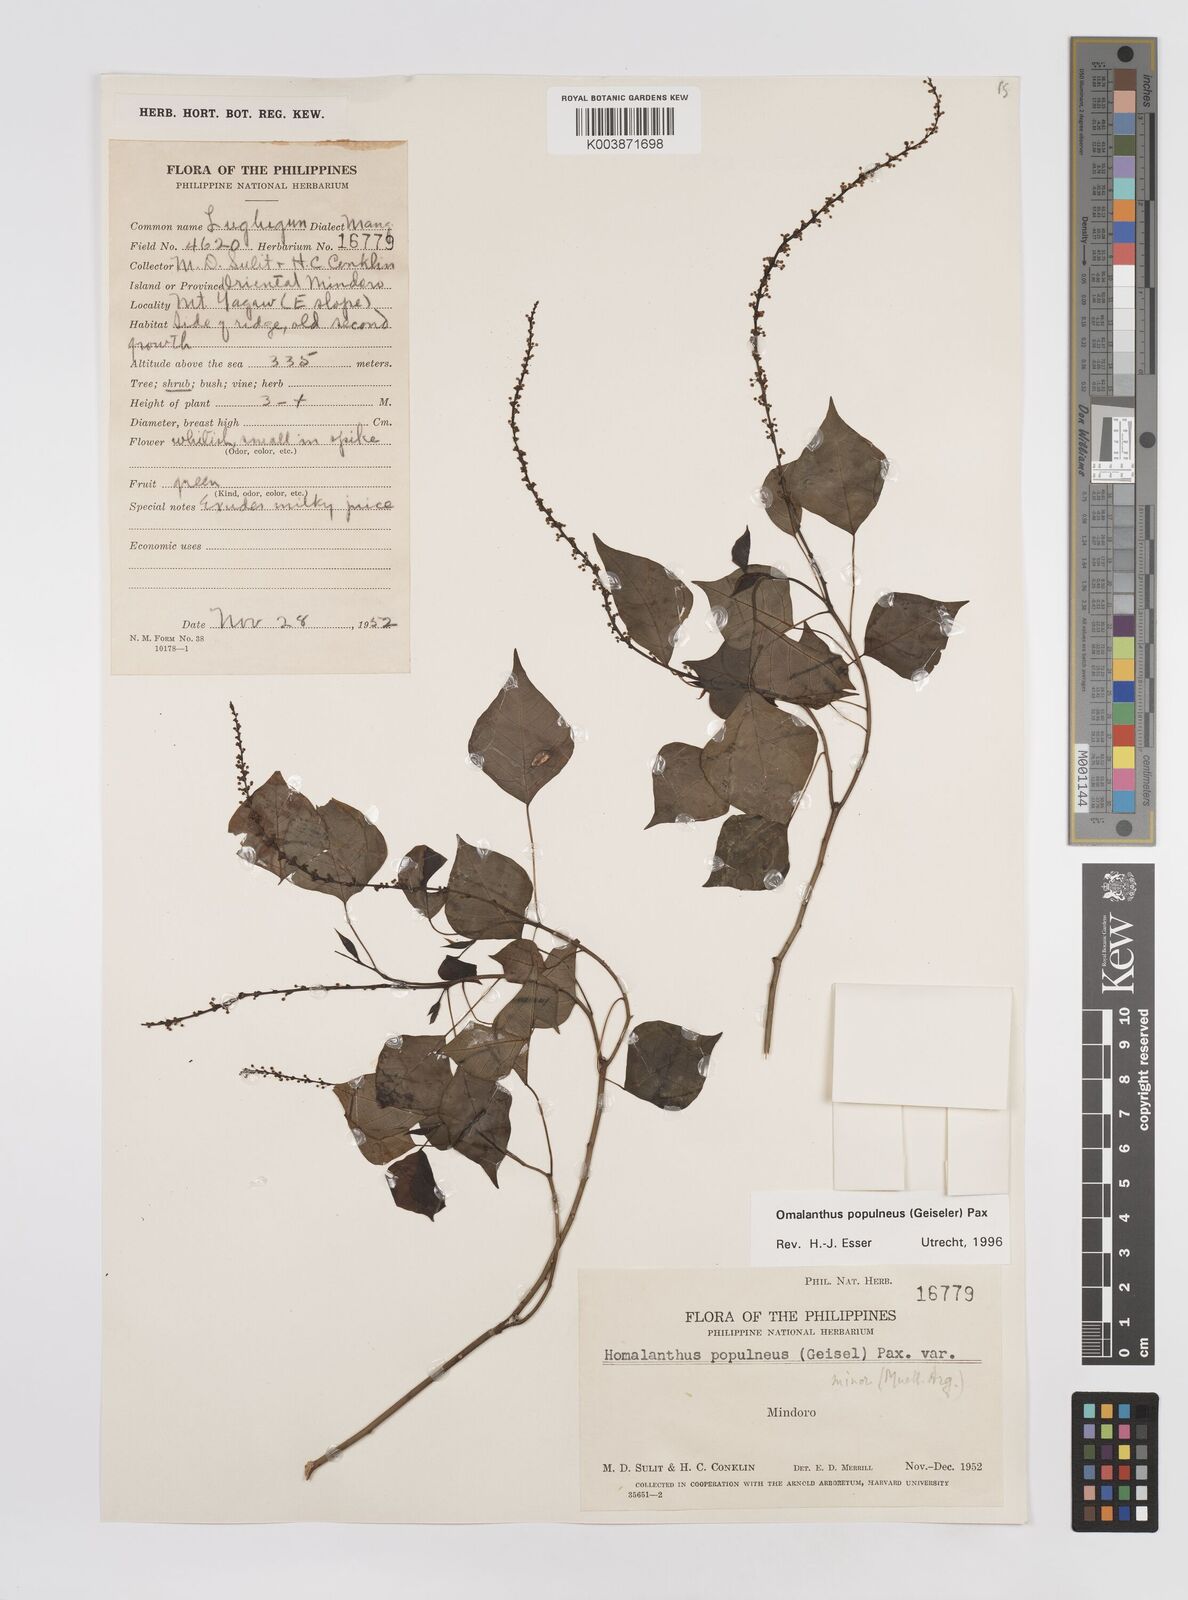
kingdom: Plantae
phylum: Tracheophyta
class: Magnoliopsida
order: Malpighiales
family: Euphorbiaceae
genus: Homalanthus
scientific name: Homalanthus populneus
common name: Spurge
